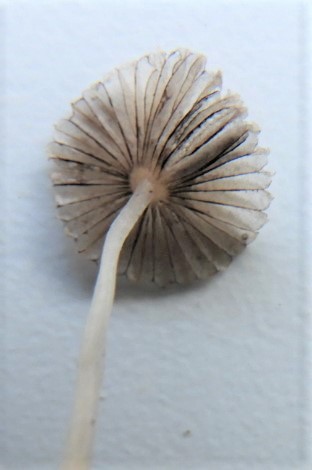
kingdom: Fungi
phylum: Basidiomycota
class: Agaricomycetes
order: Agaricales
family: Psathyrellaceae
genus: Coprinopsis
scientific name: Coprinopsis
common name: blækhat
